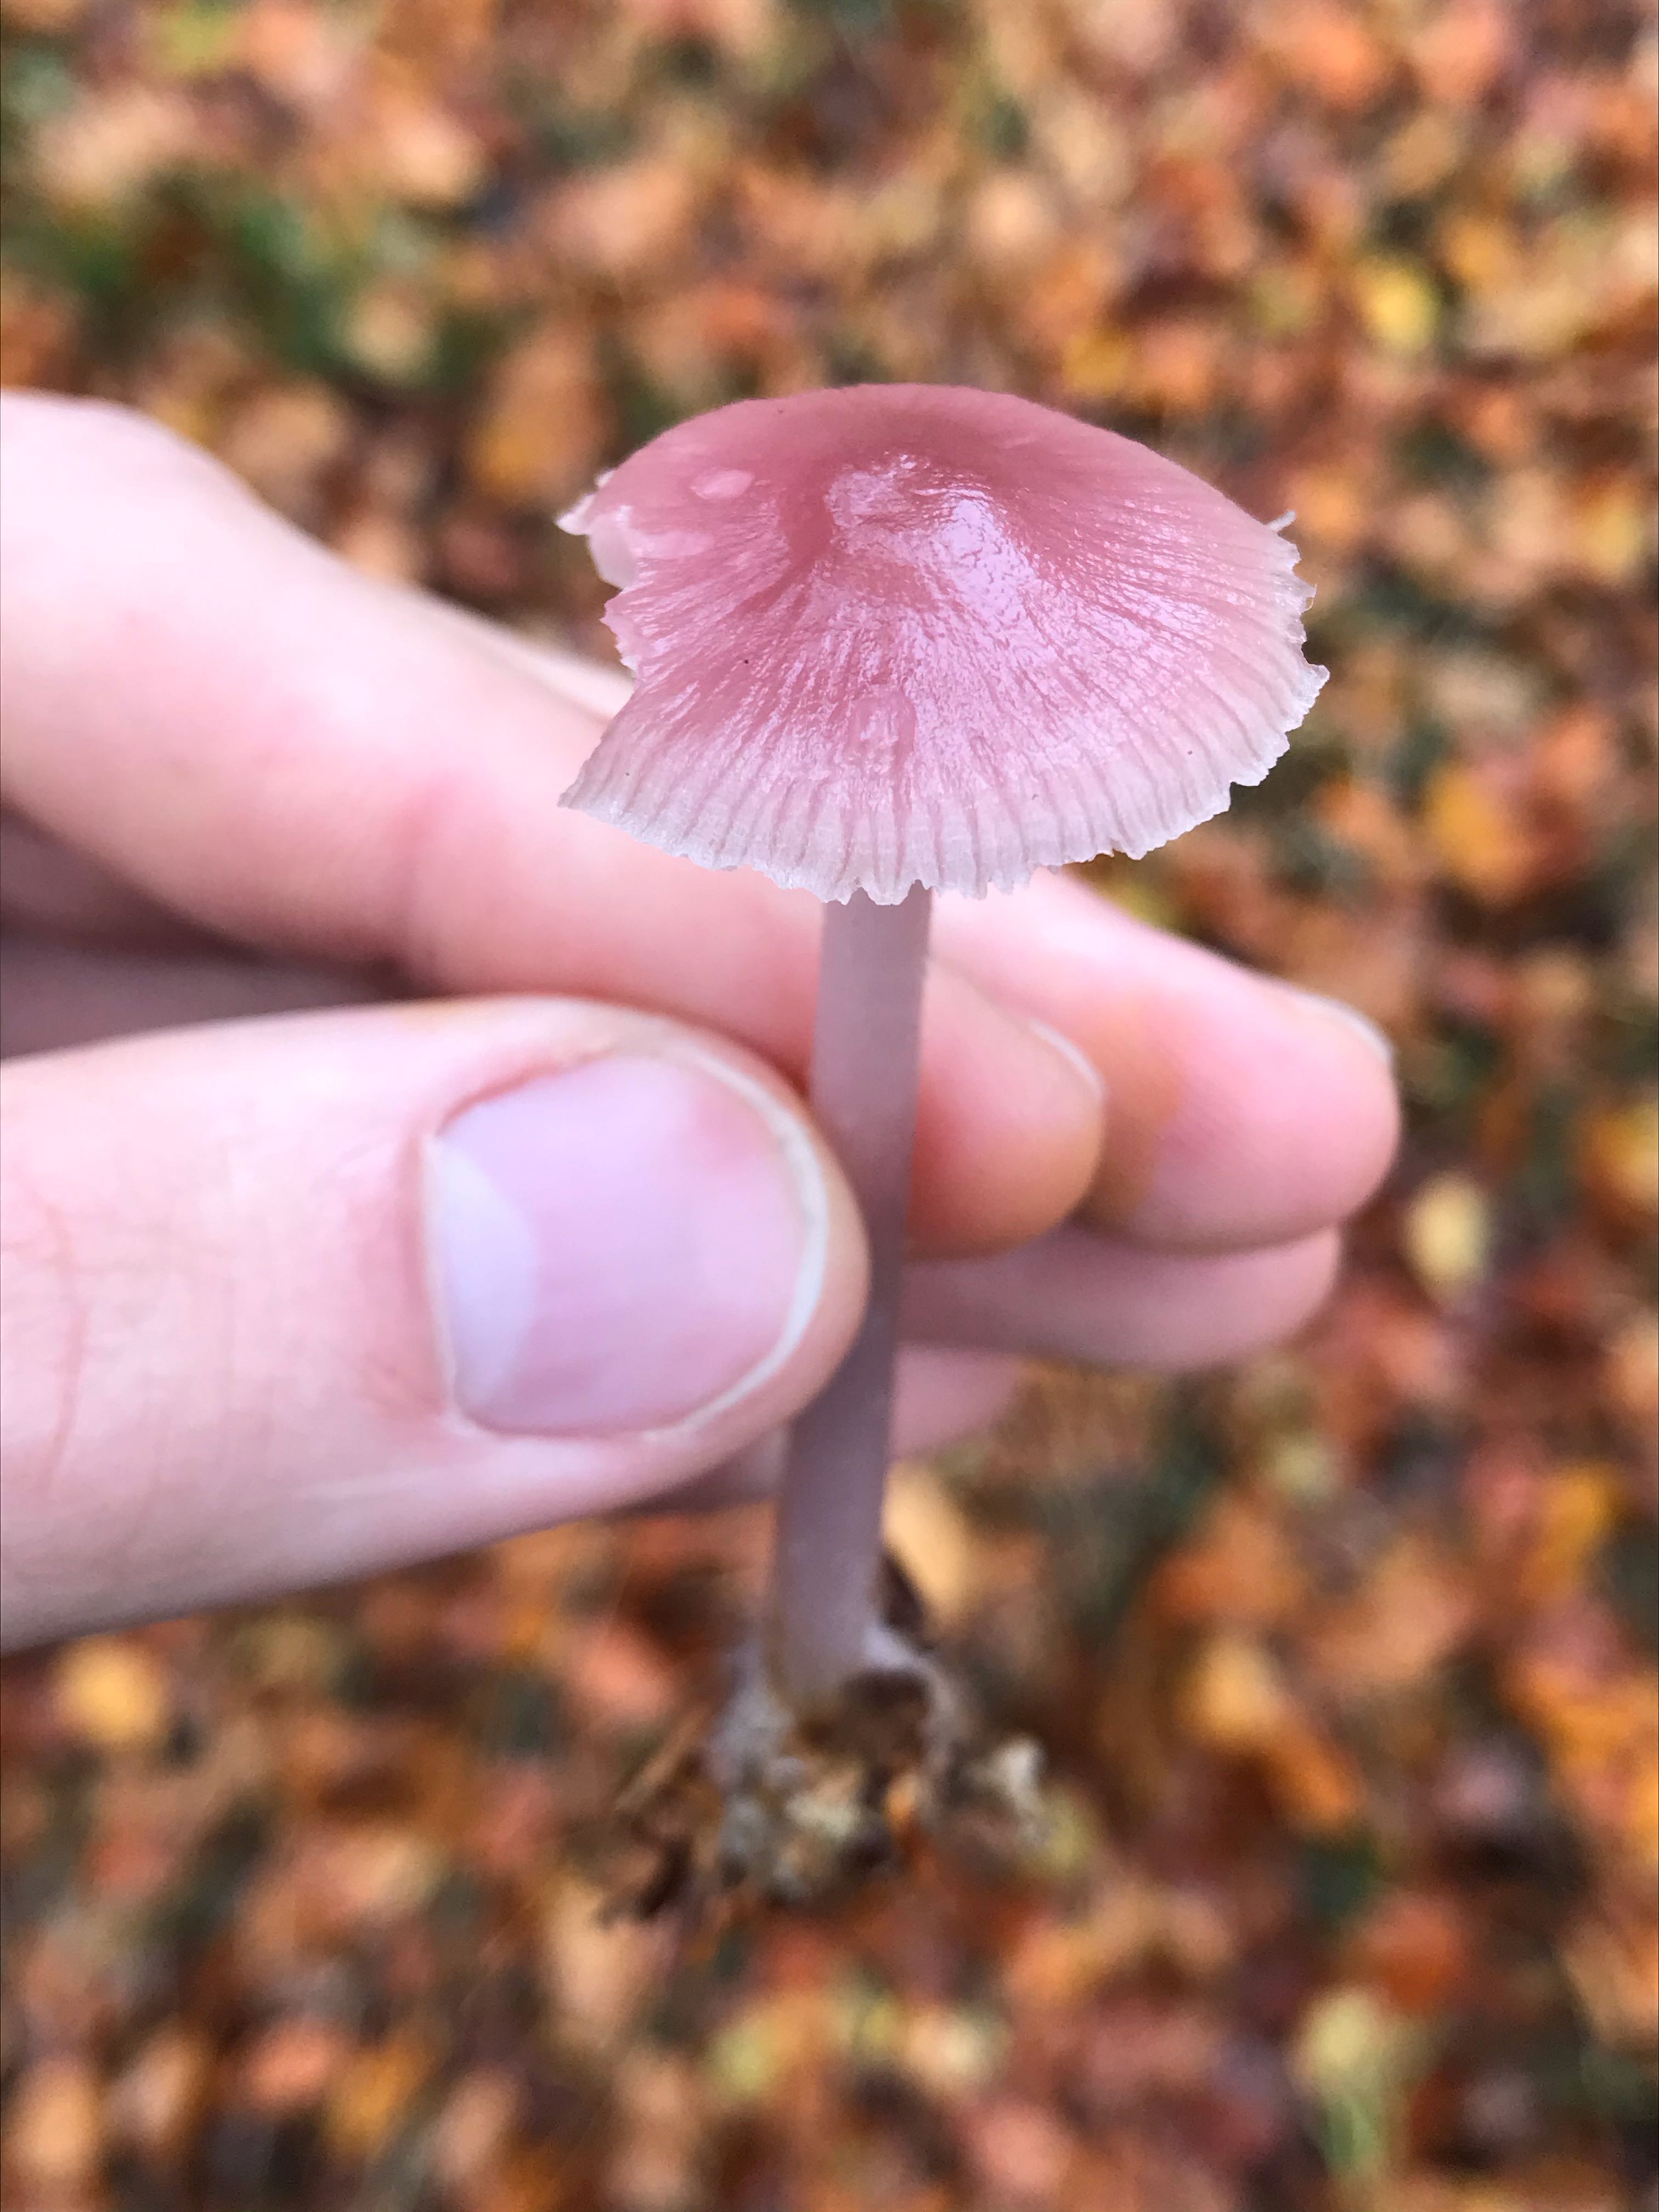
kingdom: Fungi
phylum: Basidiomycota
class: Agaricomycetes
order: Agaricales
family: Mycenaceae
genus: Mycena
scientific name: Mycena rosea
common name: rosa huesvamp
